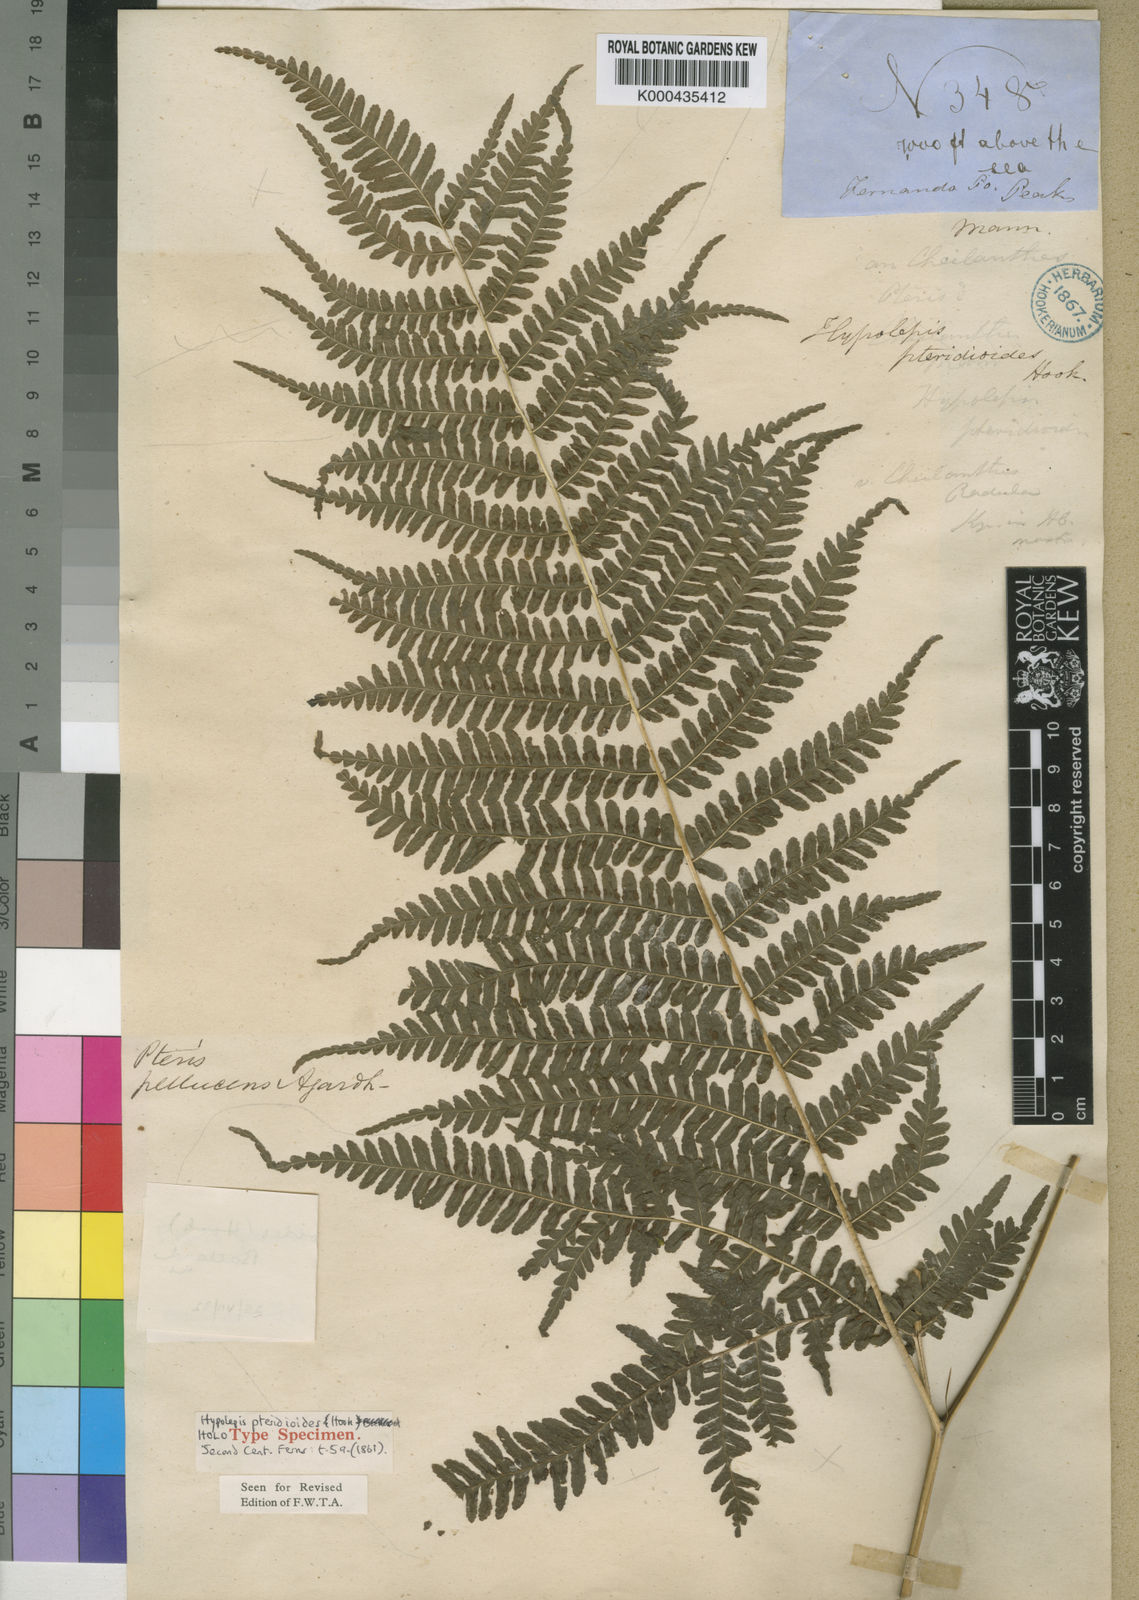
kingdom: Plantae
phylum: Tracheophyta
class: Polypodiopsida
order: Polypodiales
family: Pteridaceae
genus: Pteris
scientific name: Pteris pteridioides
